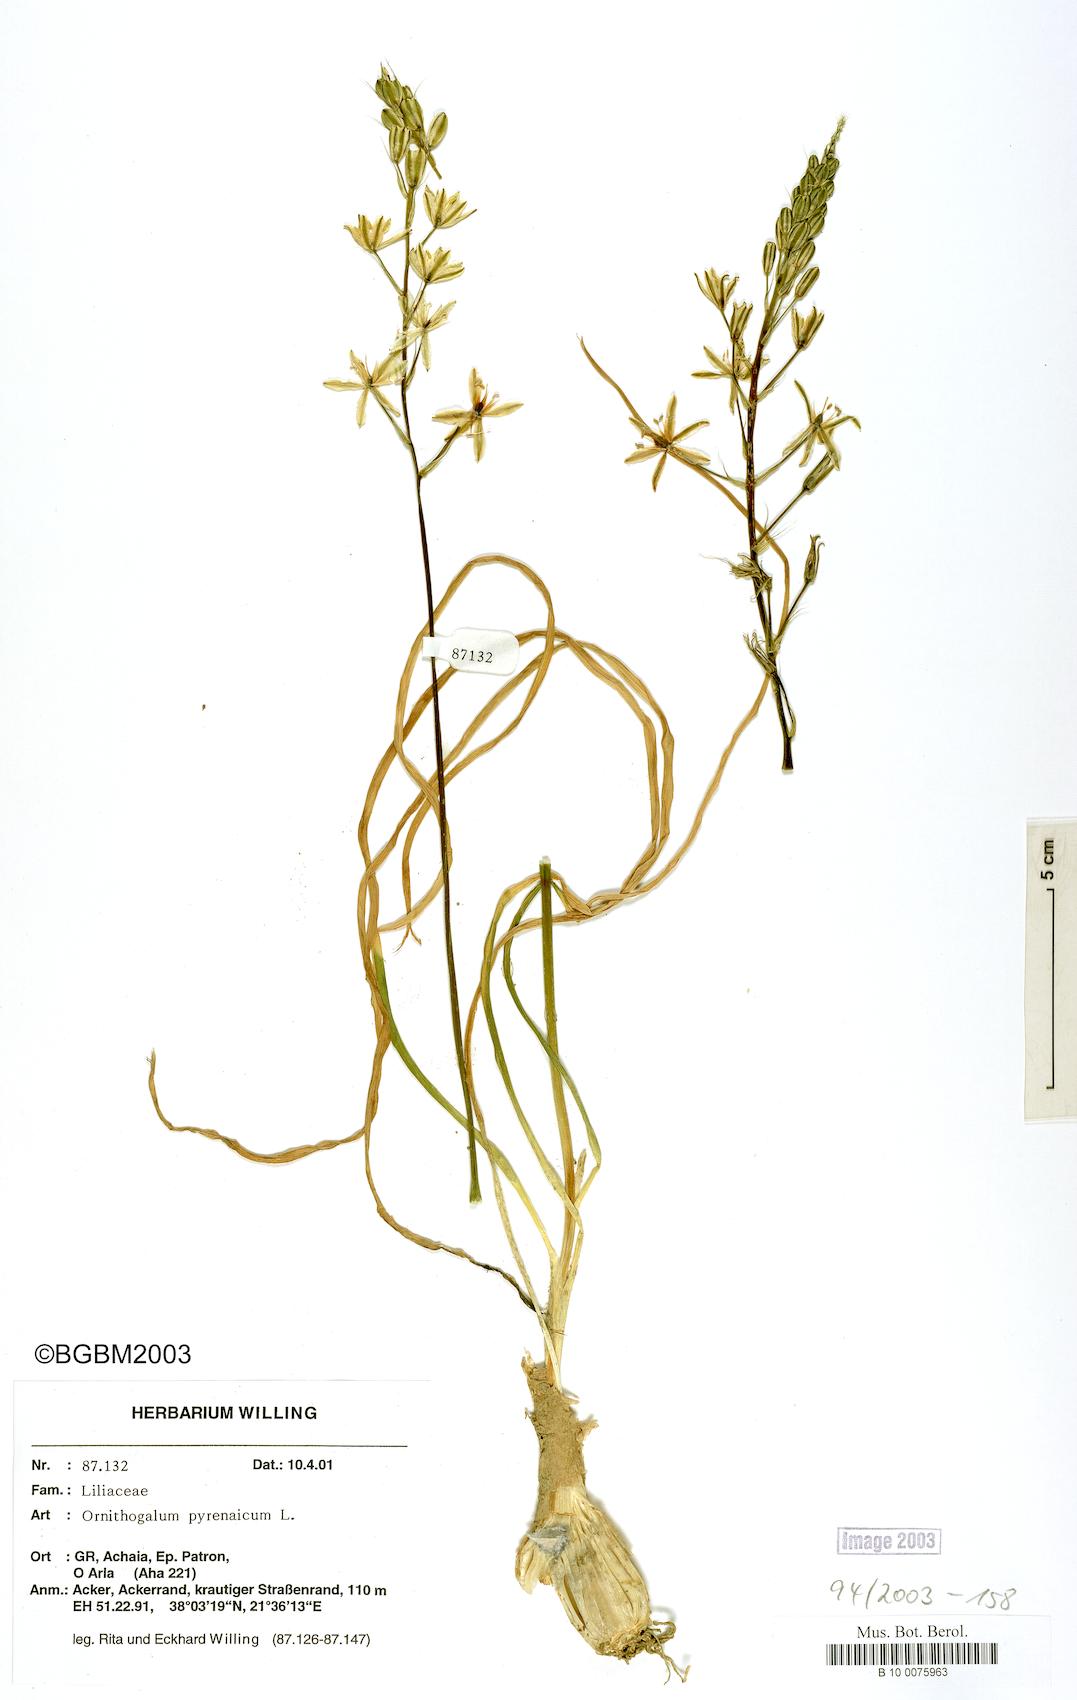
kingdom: Plantae
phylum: Tracheophyta
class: Liliopsida
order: Asparagales
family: Asparagaceae
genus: Ornithogalum
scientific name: Ornithogalum pyrenaicum
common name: Spiked star-of-bethlehem
